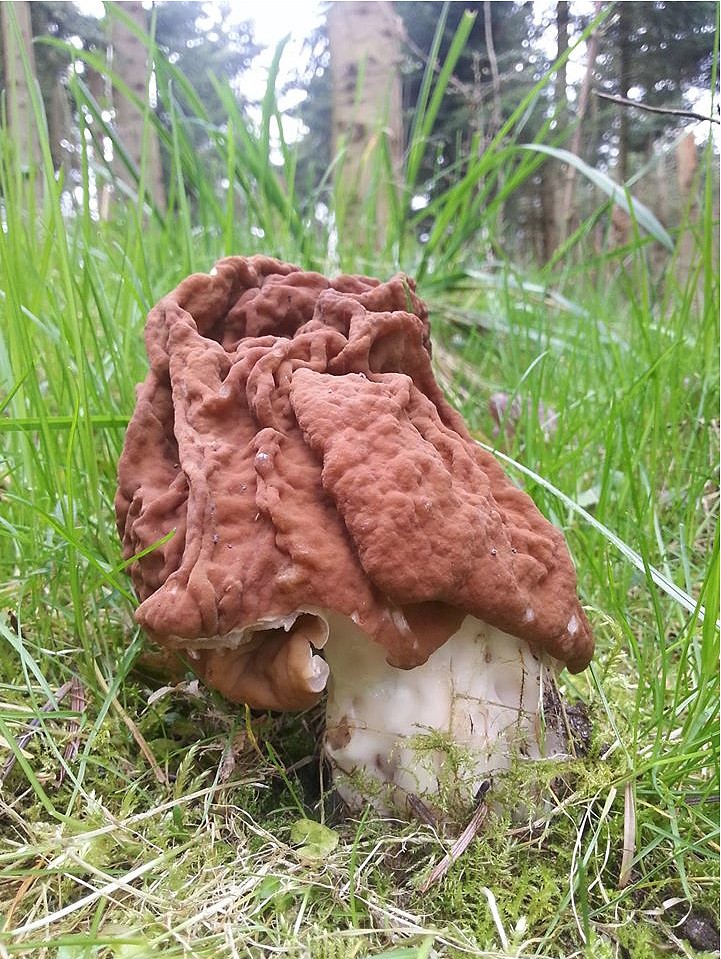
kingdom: Fungi
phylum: Ascomycota
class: Pezizomycetes
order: Pezizales
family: Discinaceae
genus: Gyromitra
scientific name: Gyromitra gigas
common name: kæmpe-stenmorkel
